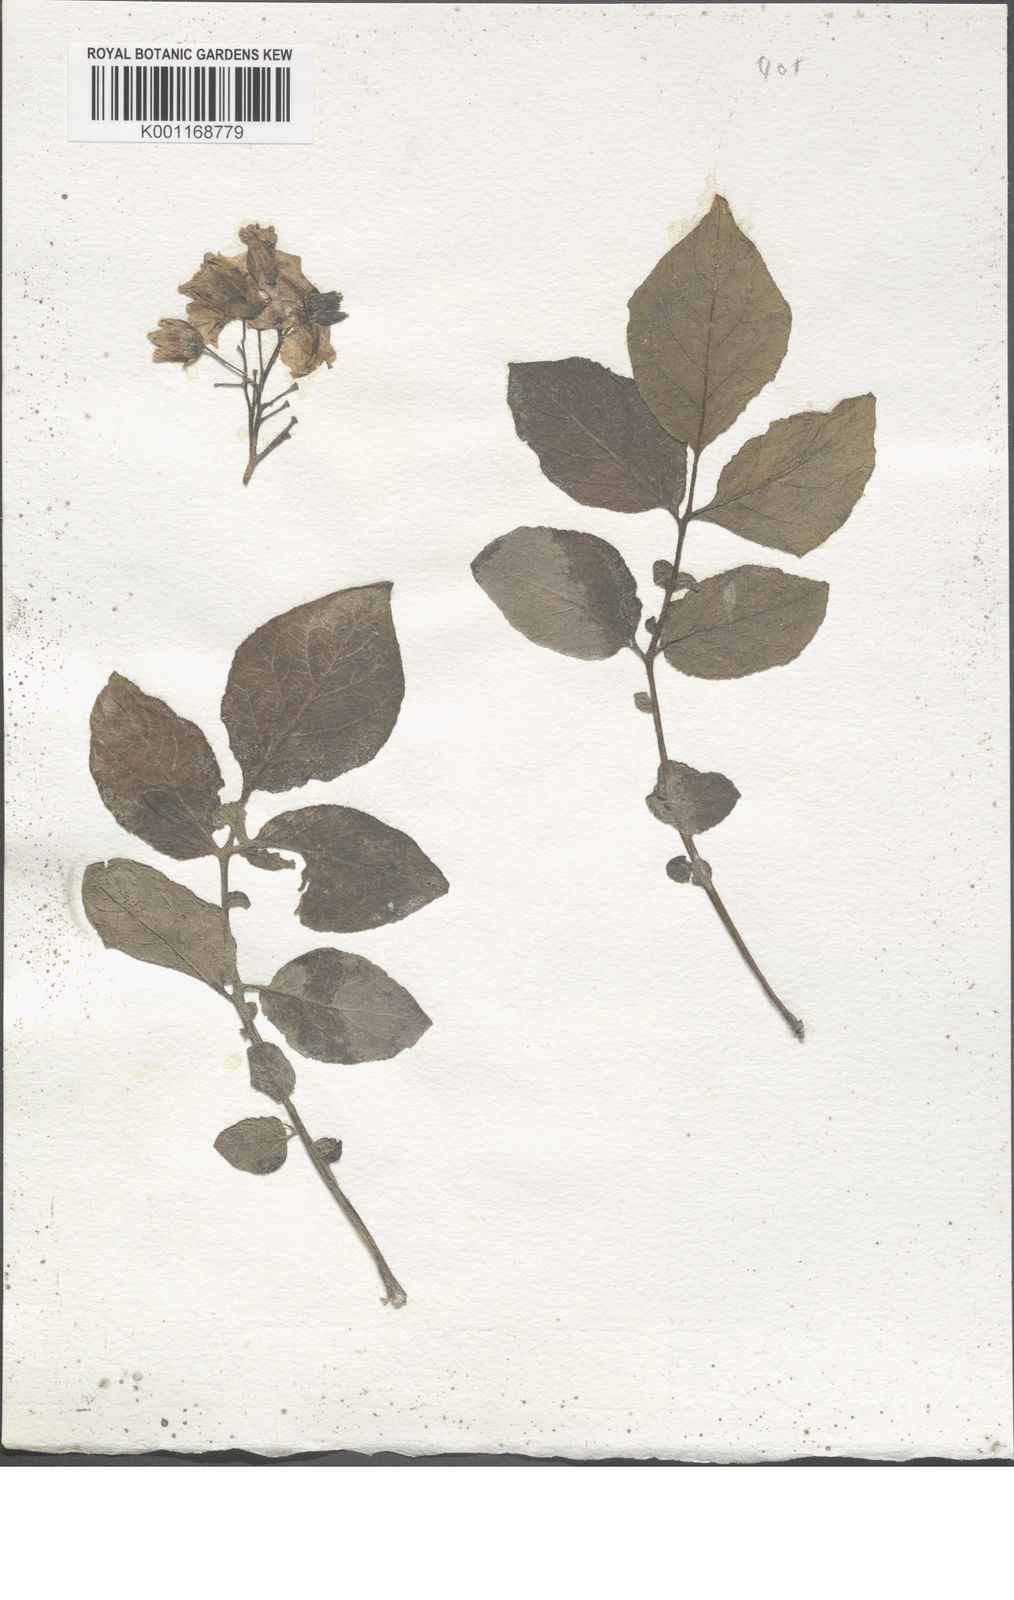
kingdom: Plantae
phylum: Tracheophyta
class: Magnoliopsida
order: Solanales
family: Solanaceae
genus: Solanum
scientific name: Solanum chaucha
